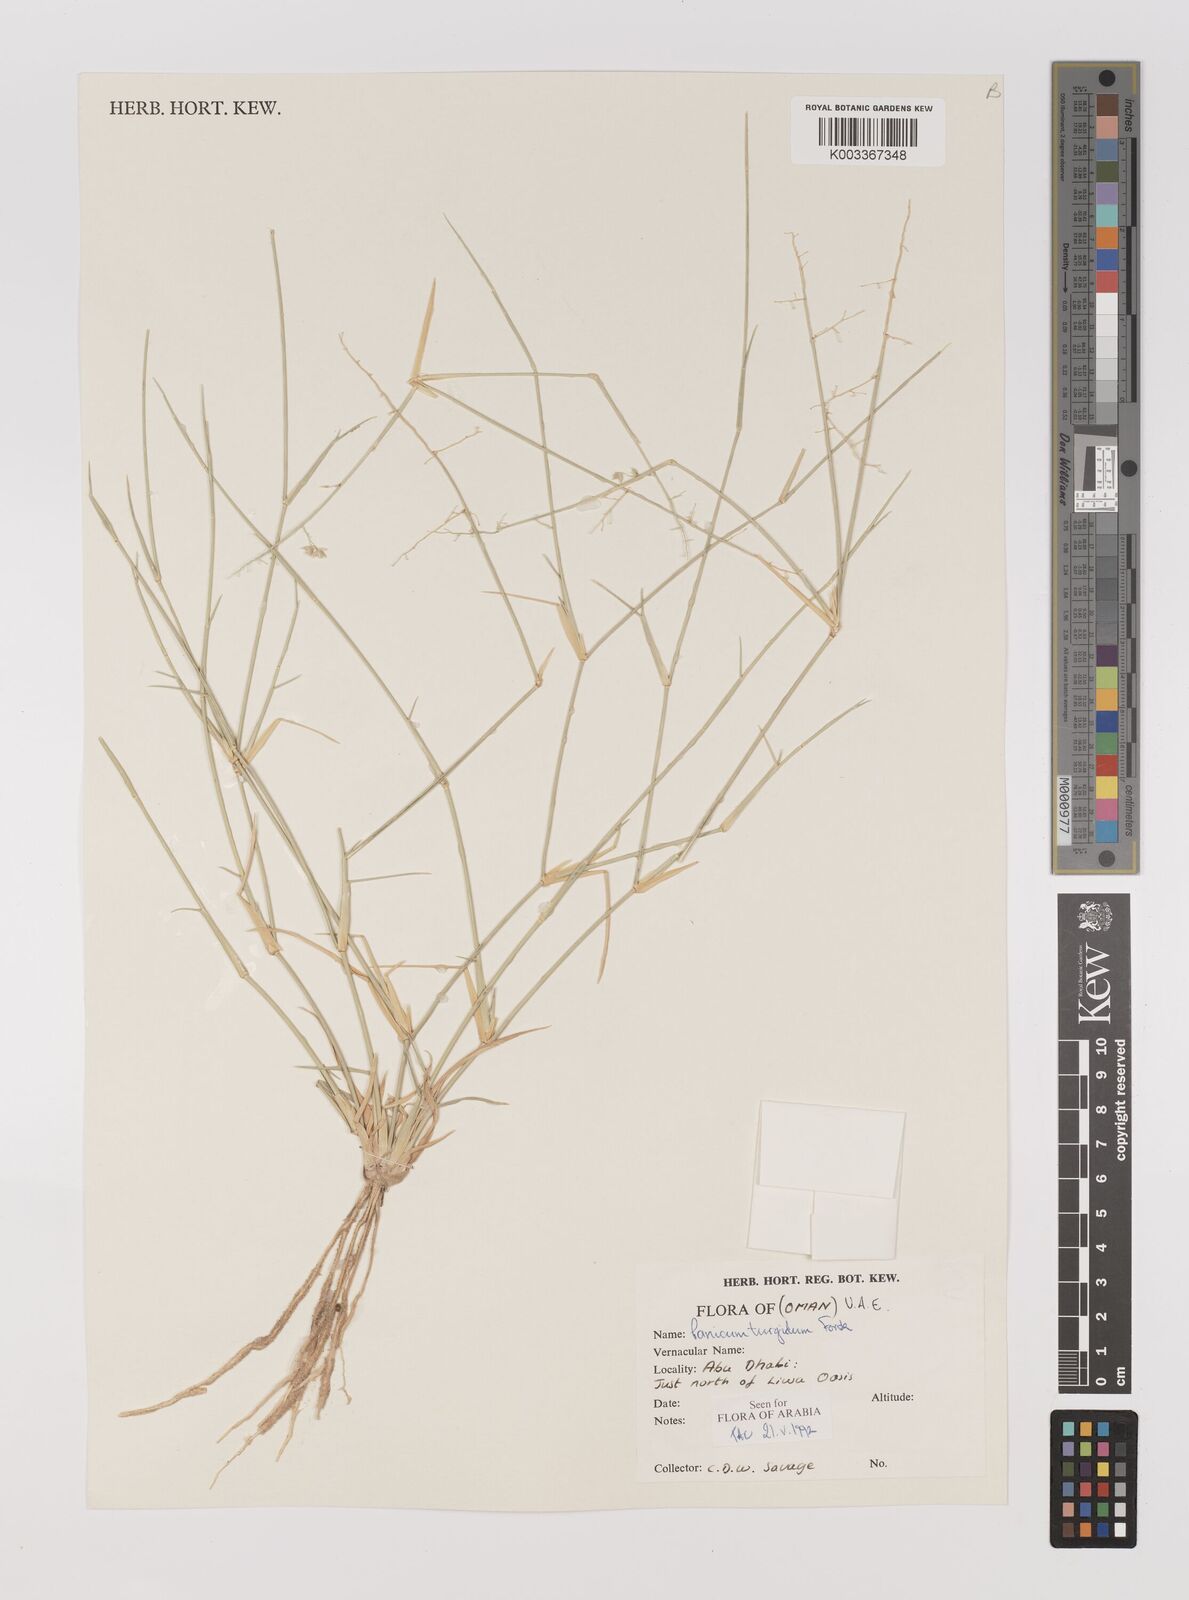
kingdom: Plantae
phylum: Tracheophyta
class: Liliopsida
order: Poales
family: Poaceae
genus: Panicum
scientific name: Panicum turgidum
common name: Desert grass
